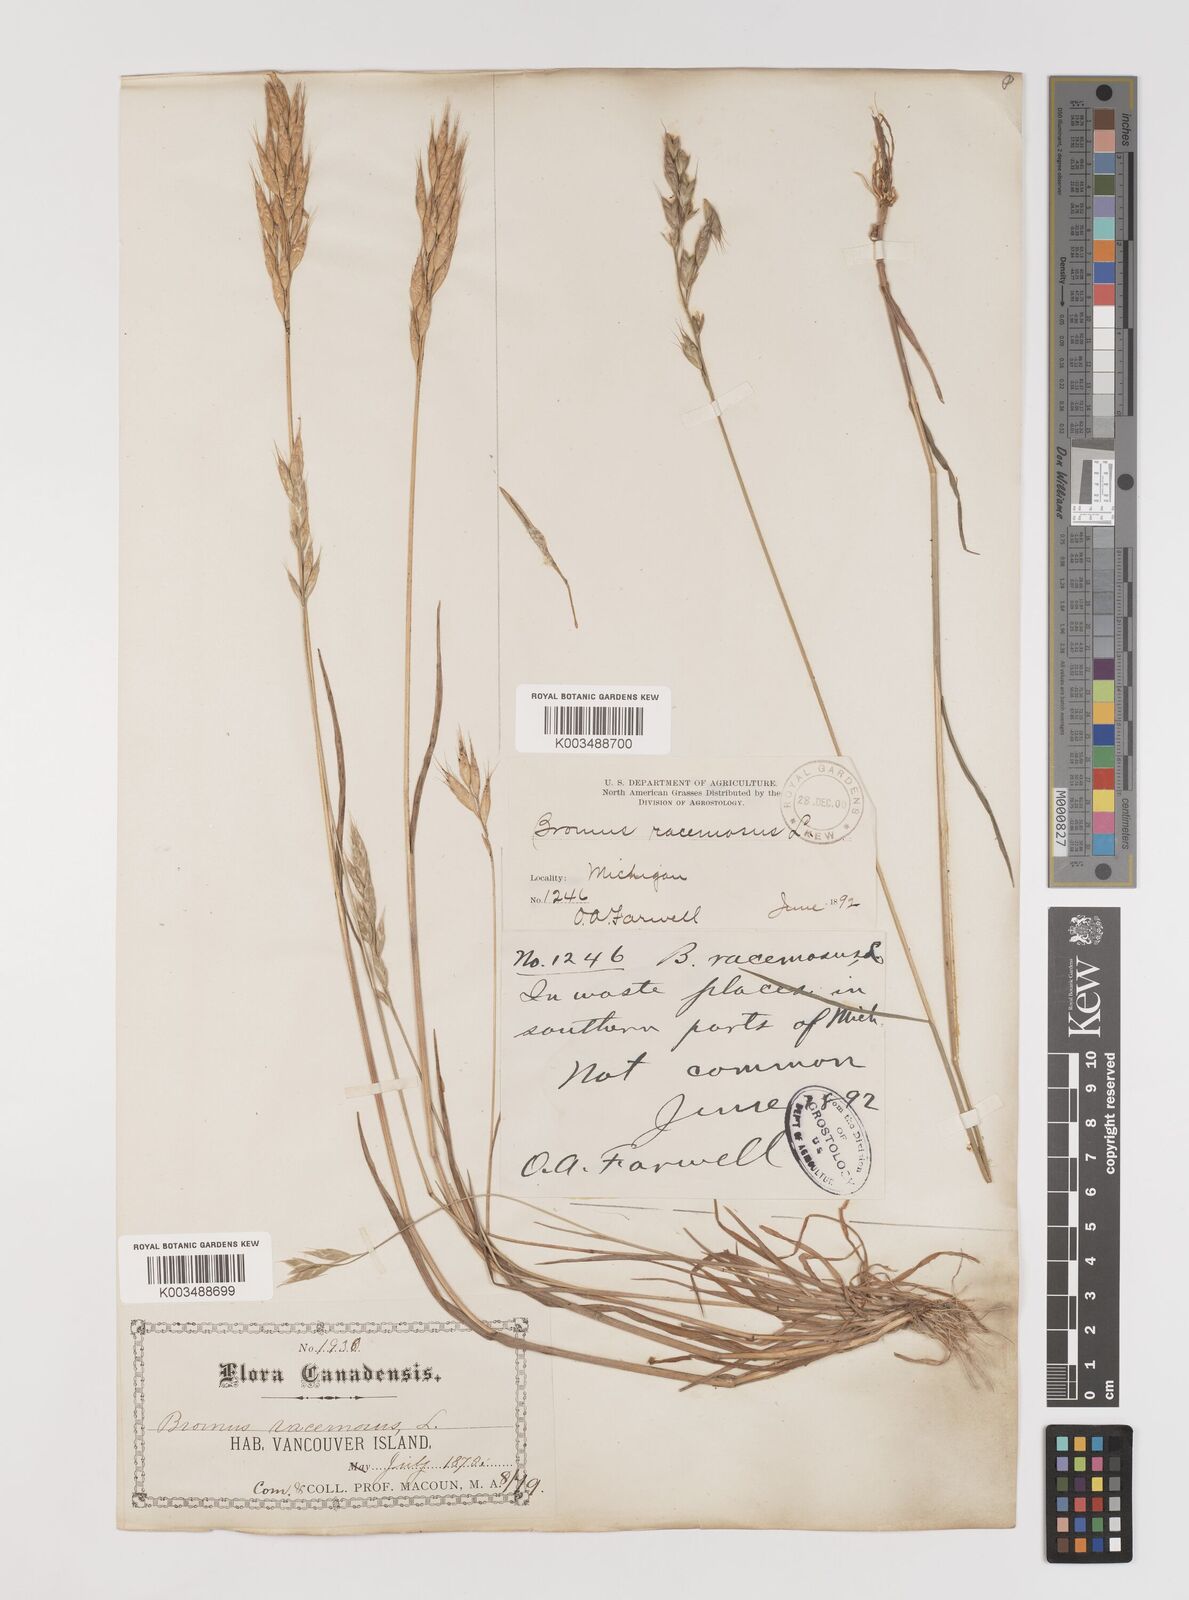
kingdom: Plantae
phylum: Tracheophyta
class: Liliopsida
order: Poales
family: Poaceae
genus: Bromus
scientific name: Bromus racemosus
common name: Bald brome
